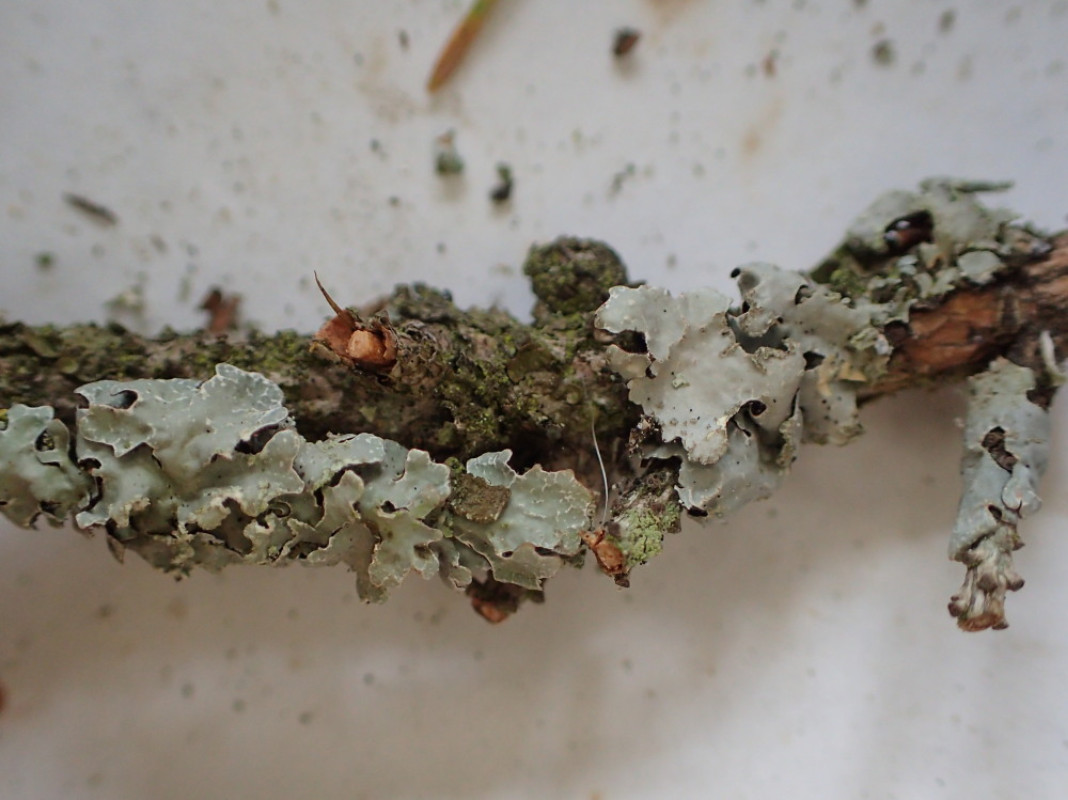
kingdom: Fungi
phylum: Ascomycota
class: Lecanoromycetes
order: Lecanorales
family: Parmeliaceae
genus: Parmelia
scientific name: Parmelia sulcata
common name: rynket skållav
